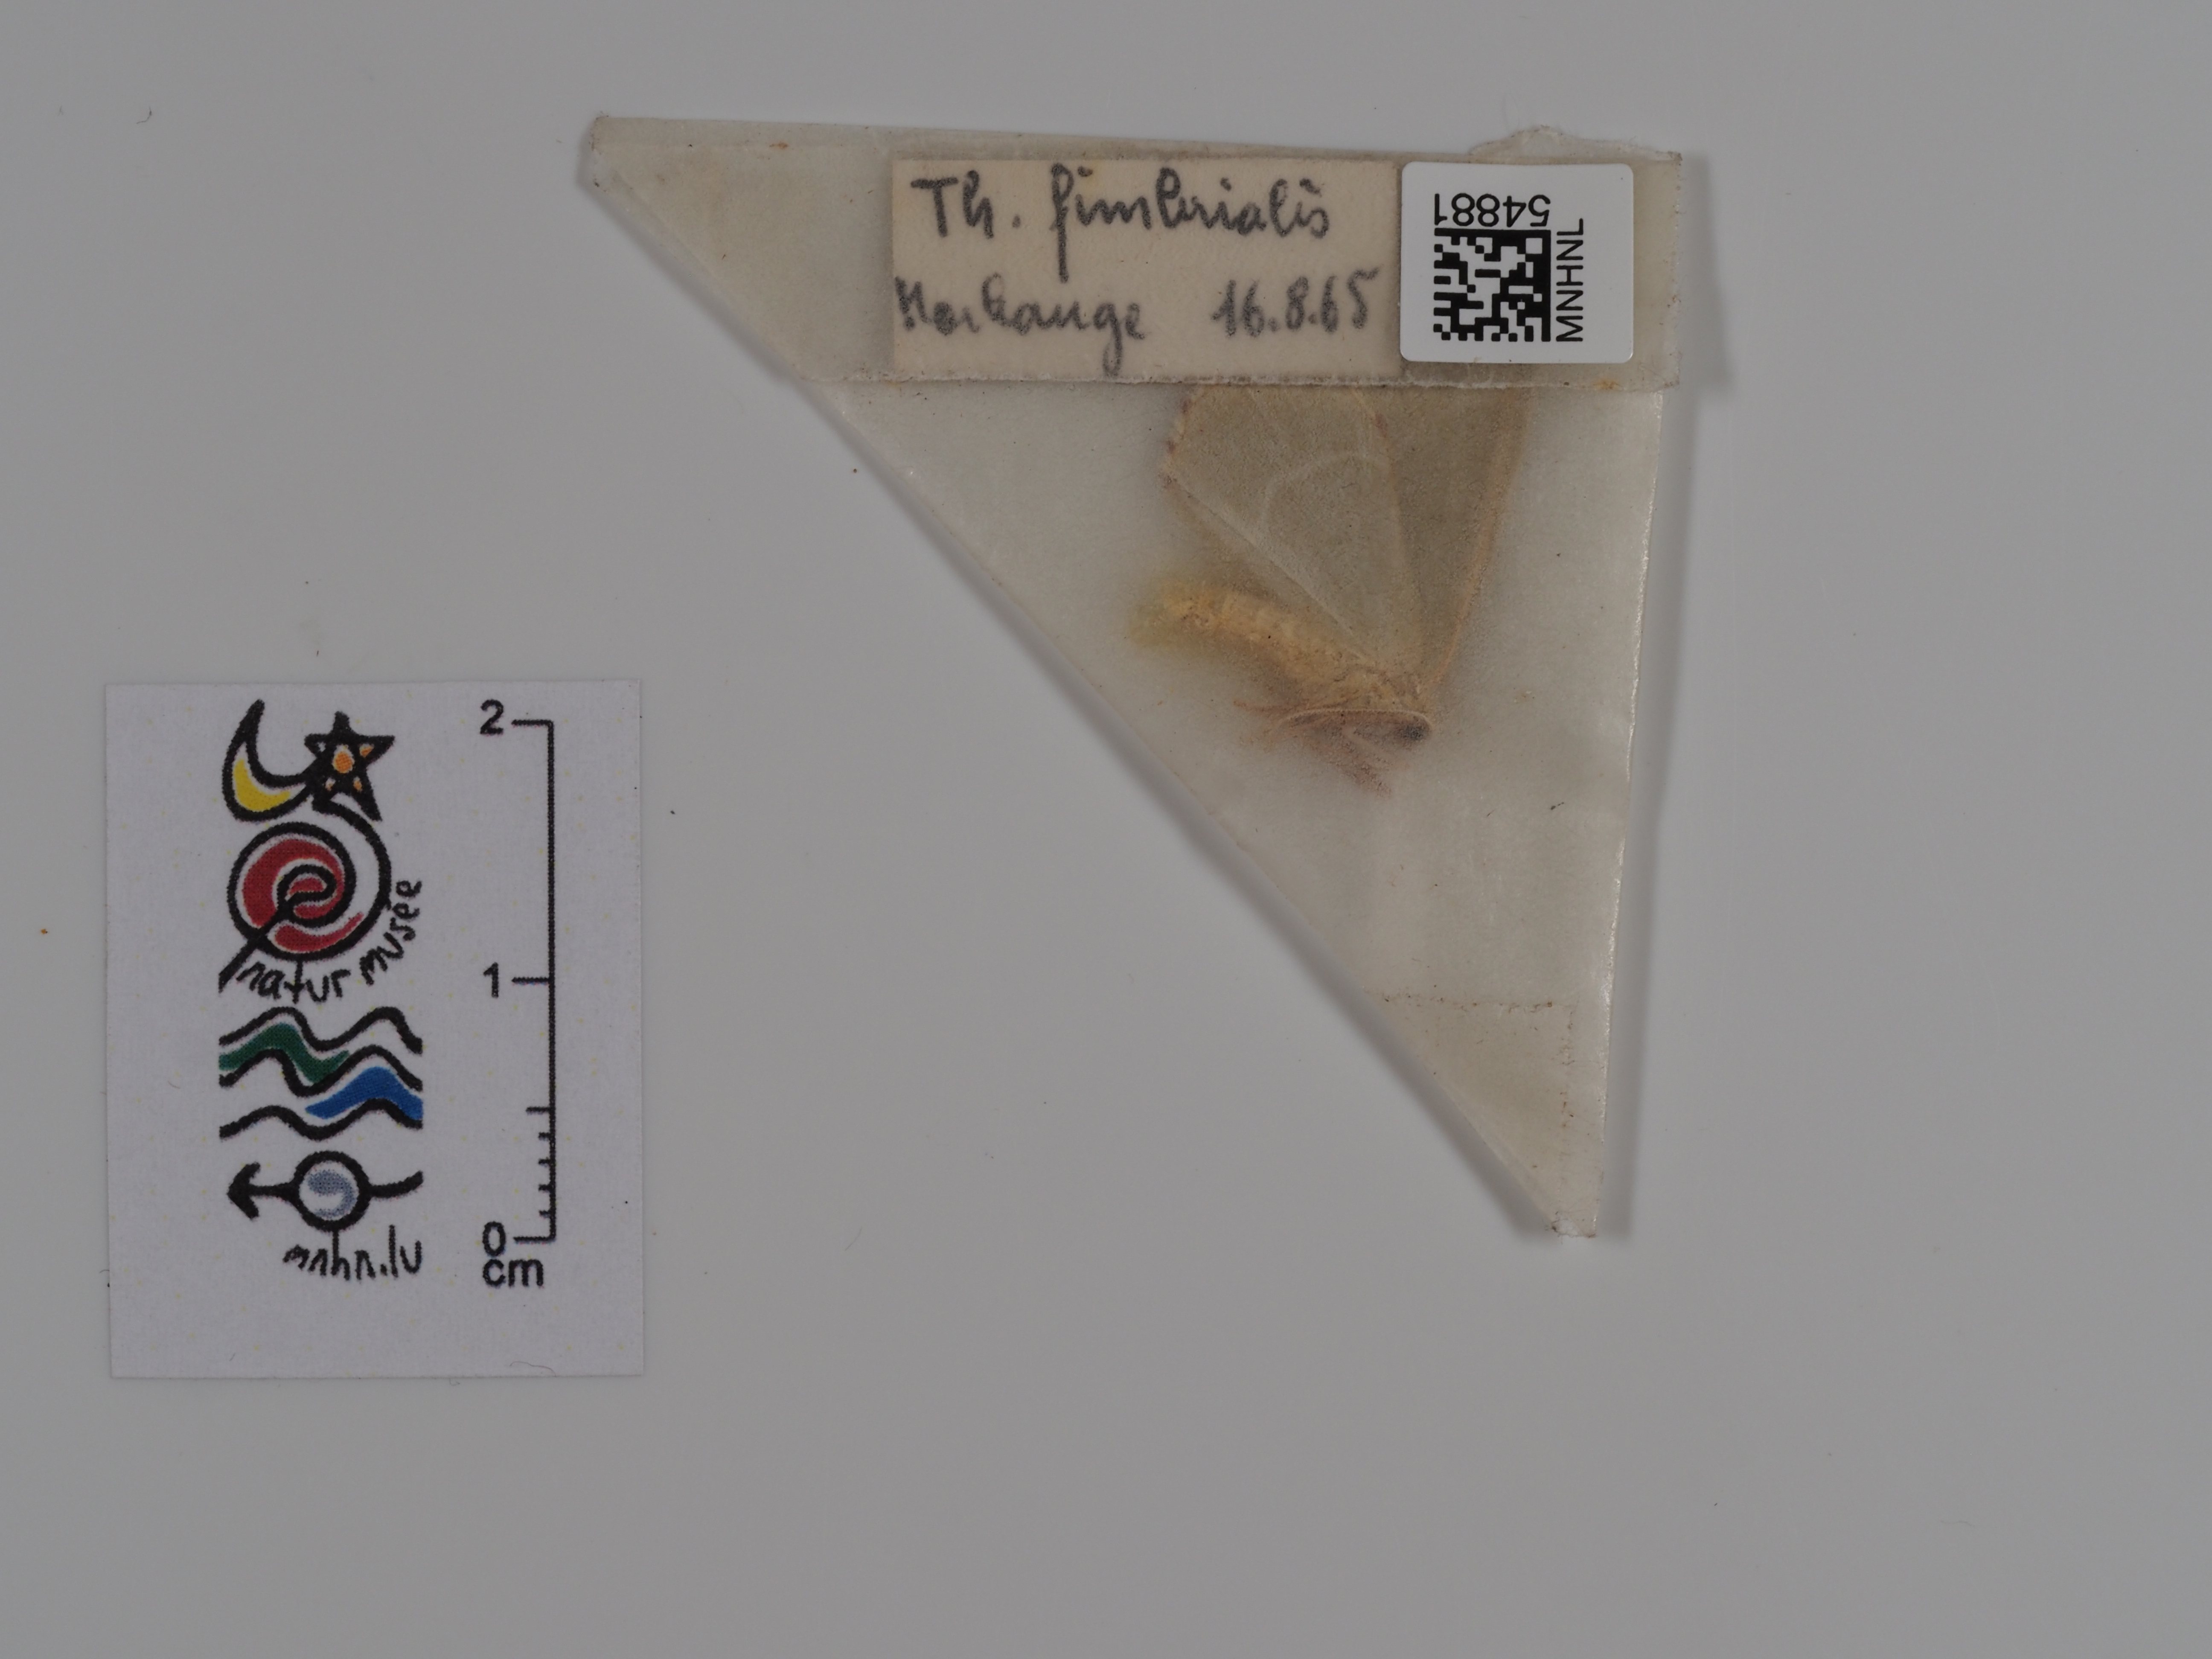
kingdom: Animalia
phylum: Arthropoda
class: Insecta
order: Lepidoptera
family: Geometridae
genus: Thalera
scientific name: Thalera fimbrialis
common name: Sussex emerald
